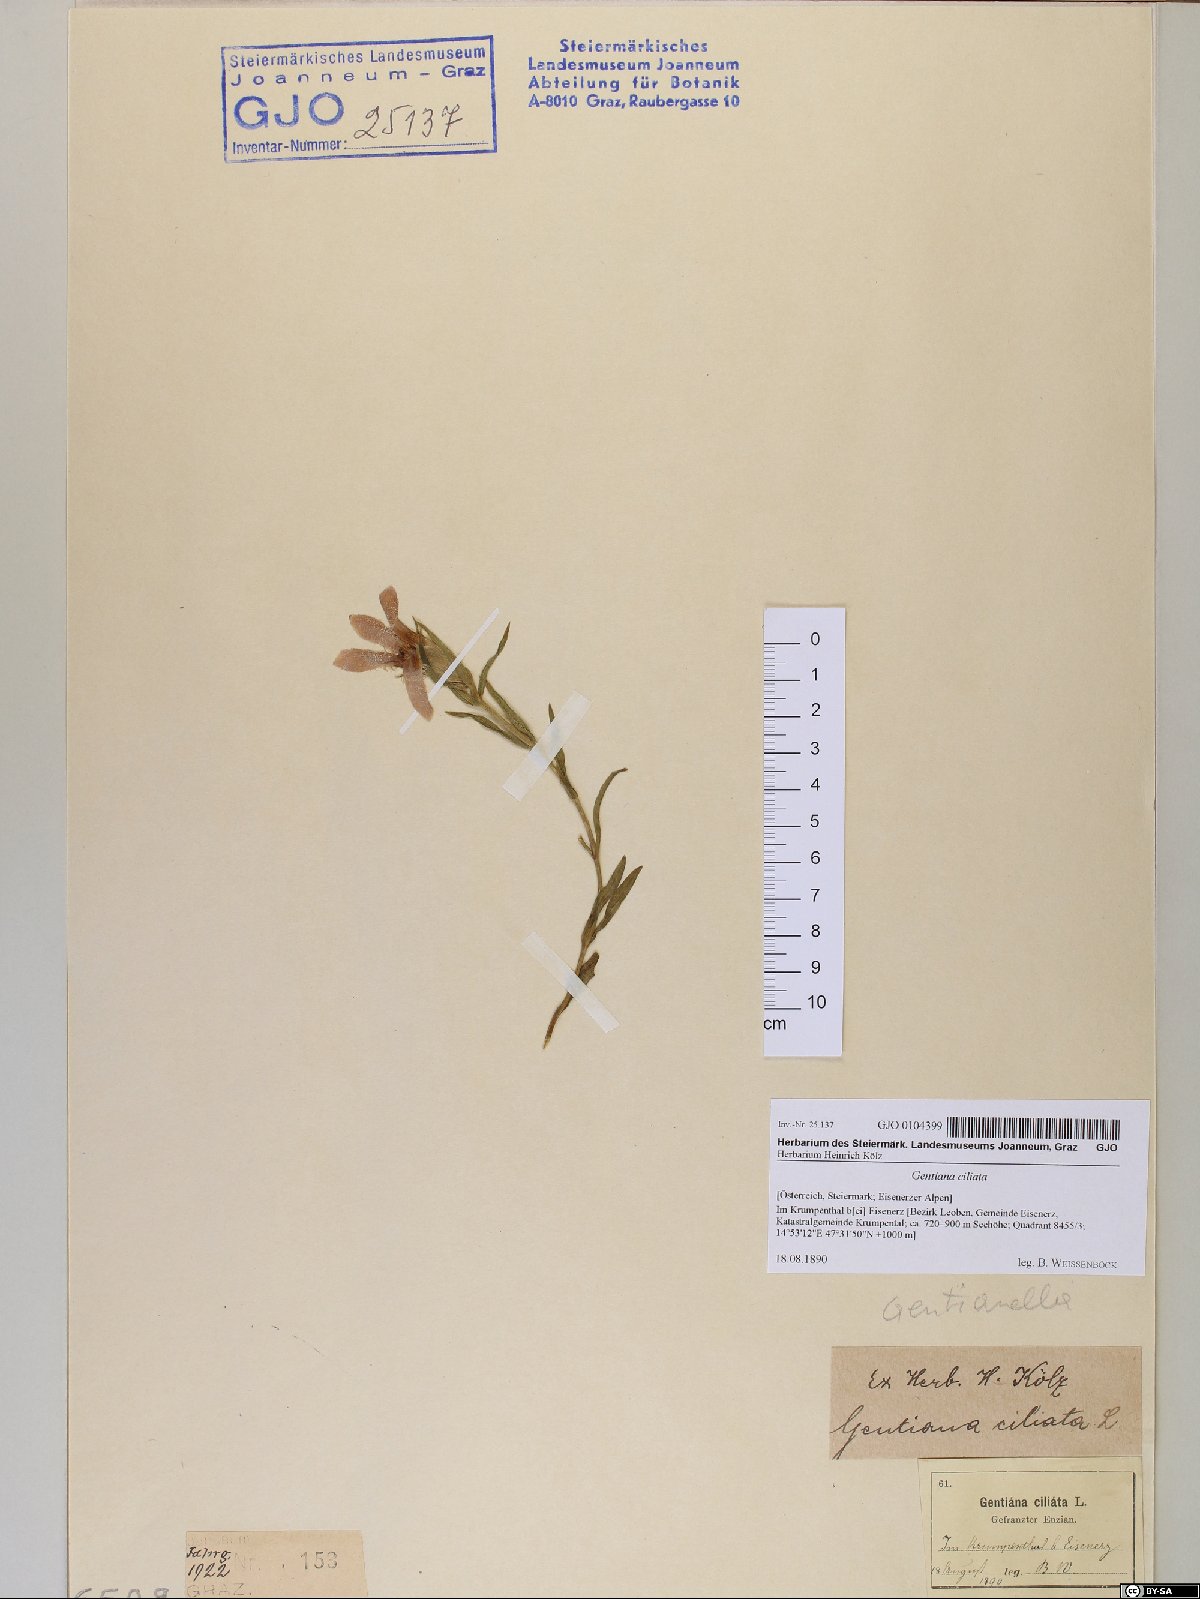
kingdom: Plantae
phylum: Tracheophyta
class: Magnoliopsida
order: Gentianales
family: Gentianaceae
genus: Gentianopsis
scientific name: Gentianopsis ciliata
